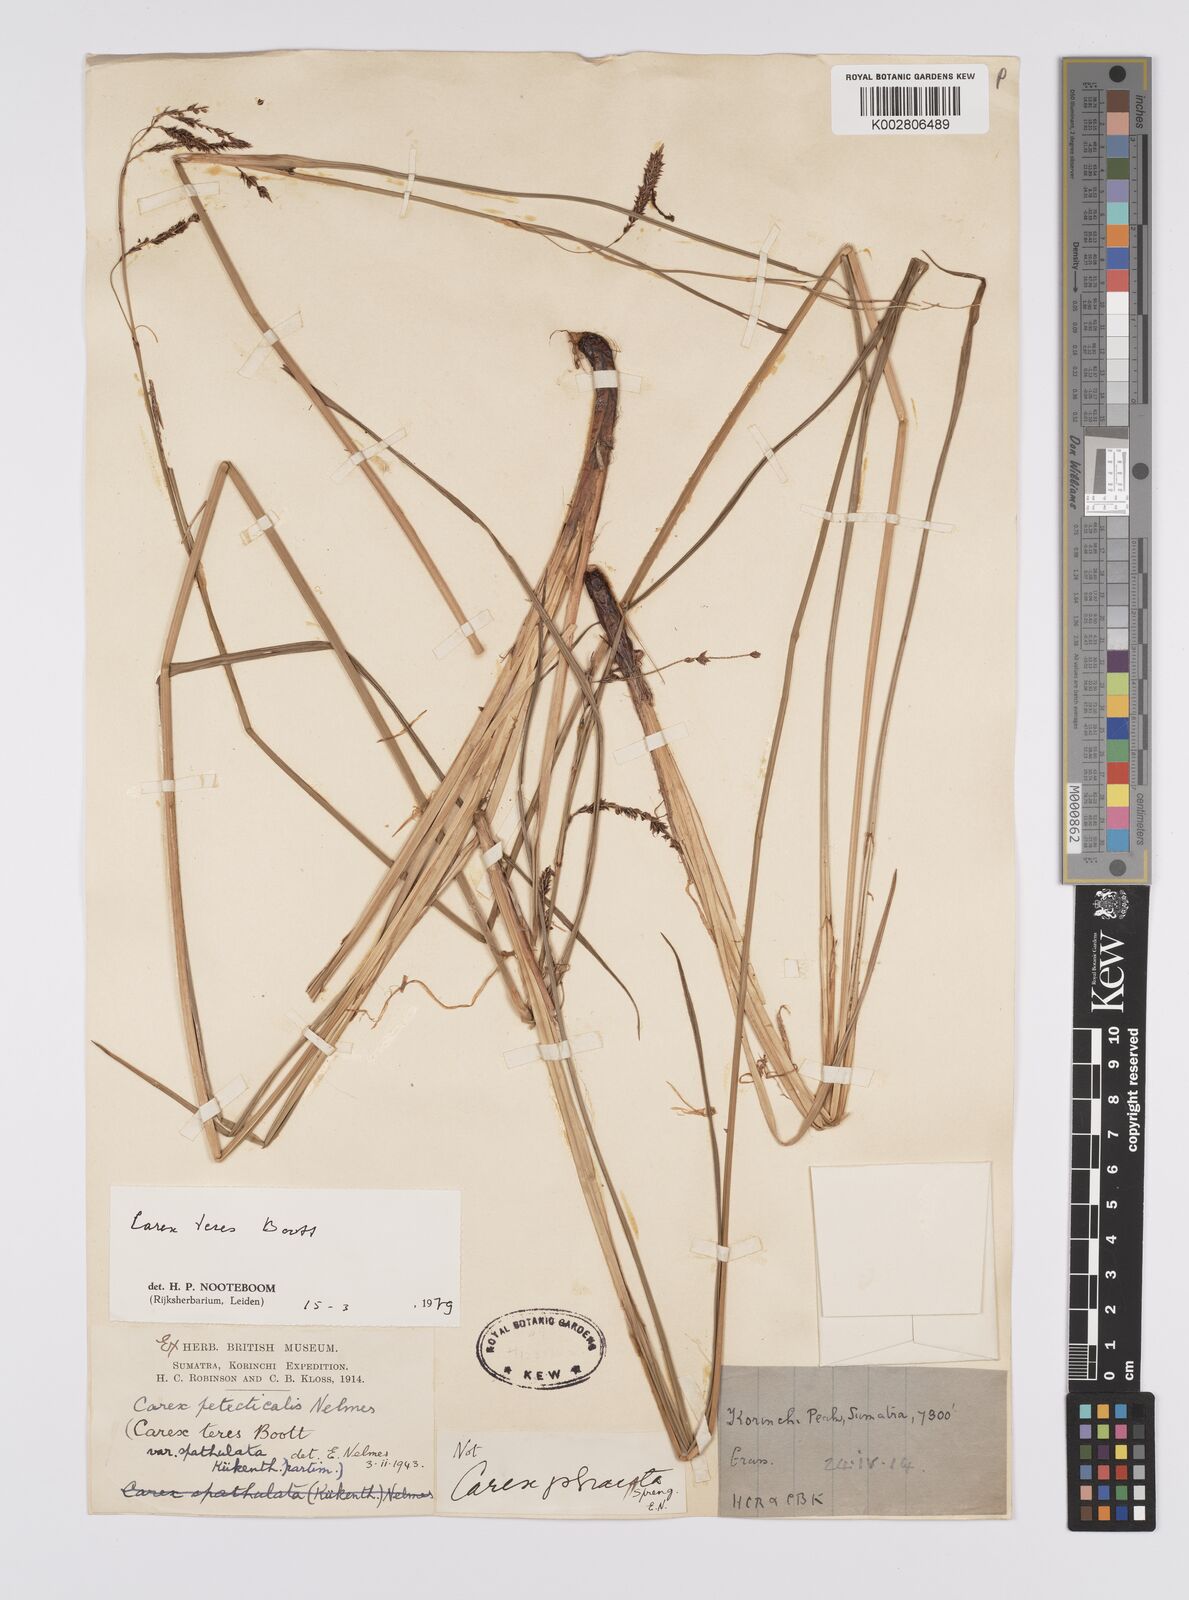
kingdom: Plantae
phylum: Tracheophyta
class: Liliopsida
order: Poales
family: Cyperaceae
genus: Carex
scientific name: Carex teres
